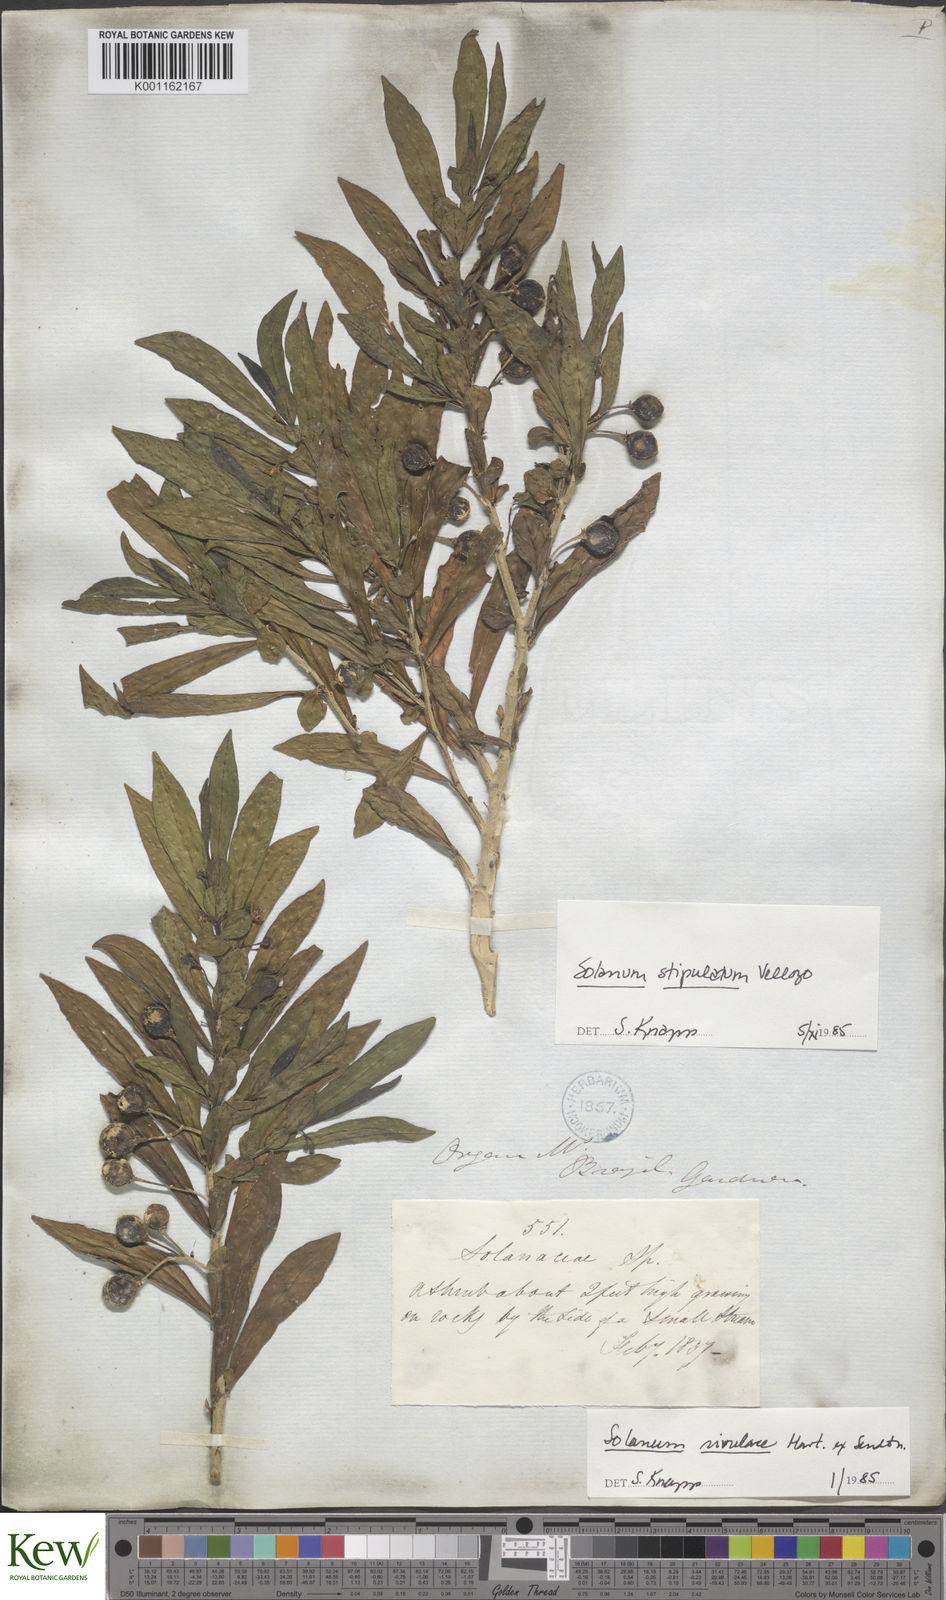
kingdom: Plantae
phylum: Tracheophyta
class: Magnoliopsida
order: Solanales
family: Solanaceae
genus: Solanum
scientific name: Solanum stipulatum
